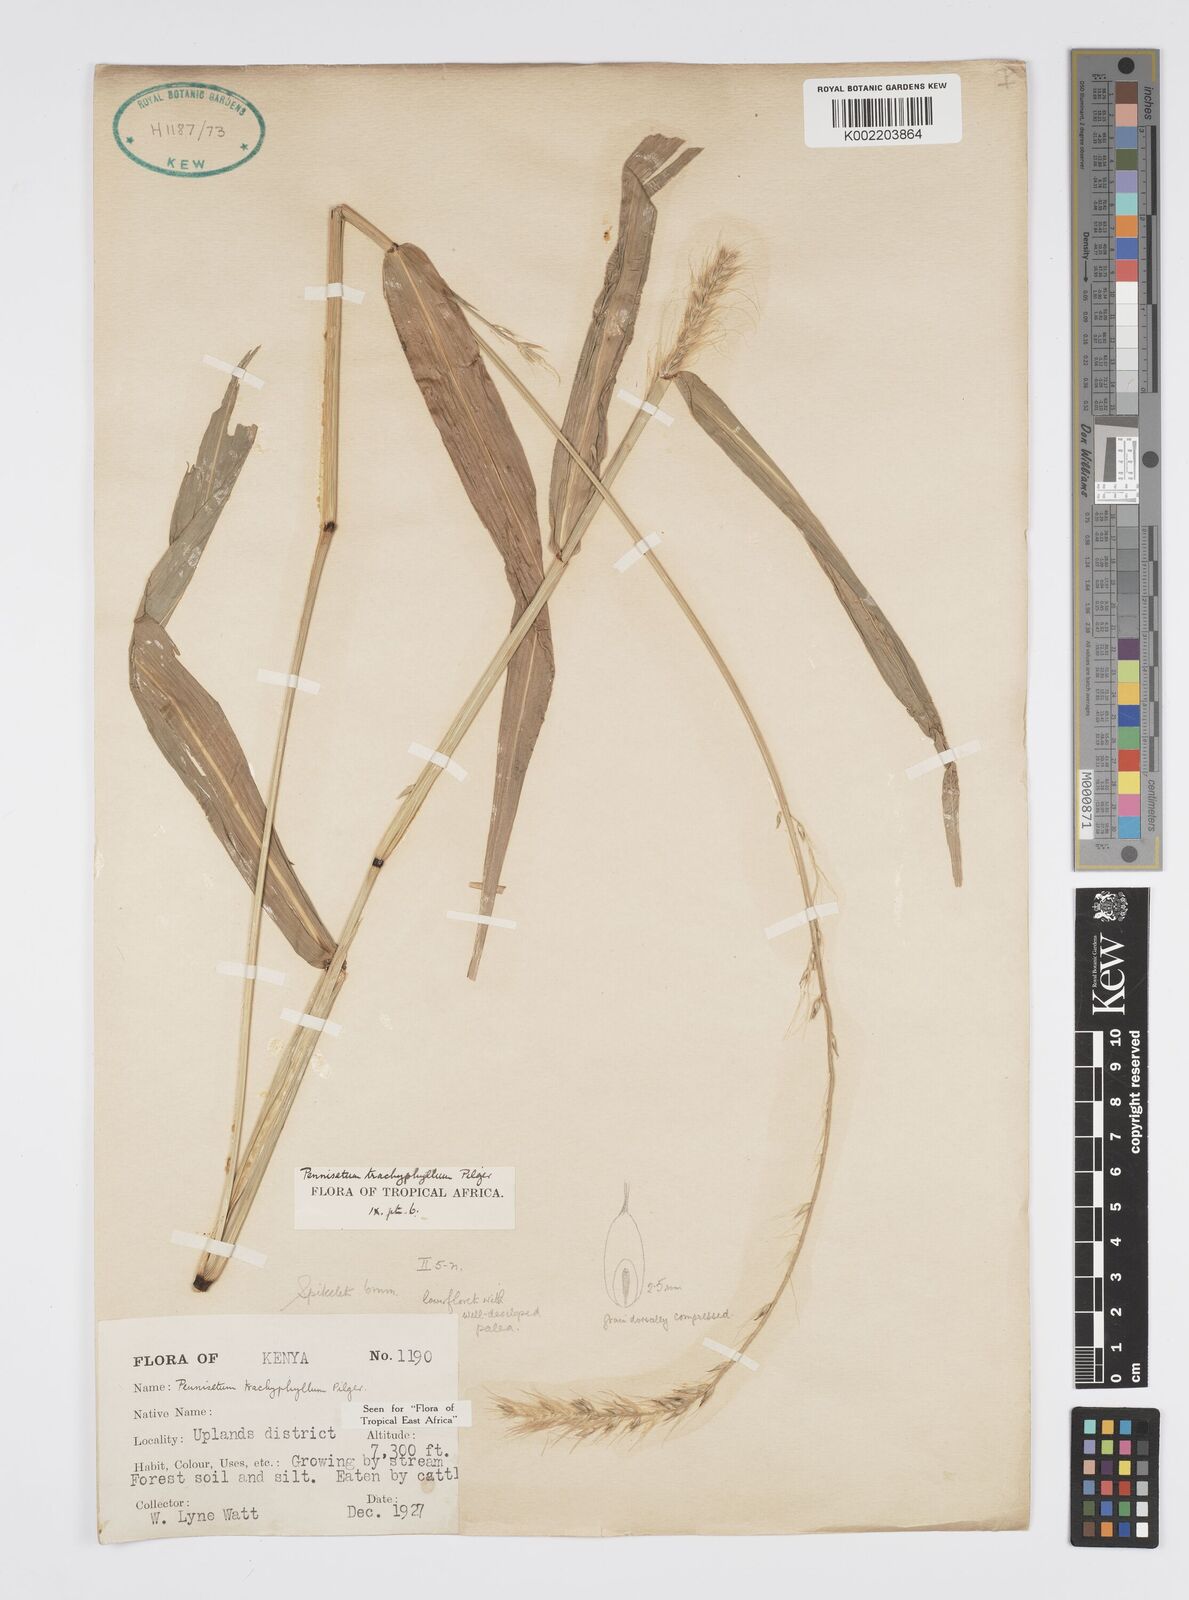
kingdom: Plantae
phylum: Tracheophyta
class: Liliopsida
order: Poales
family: Poaceae
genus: Cenchrus
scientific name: Cenchrus trachyphyllus
